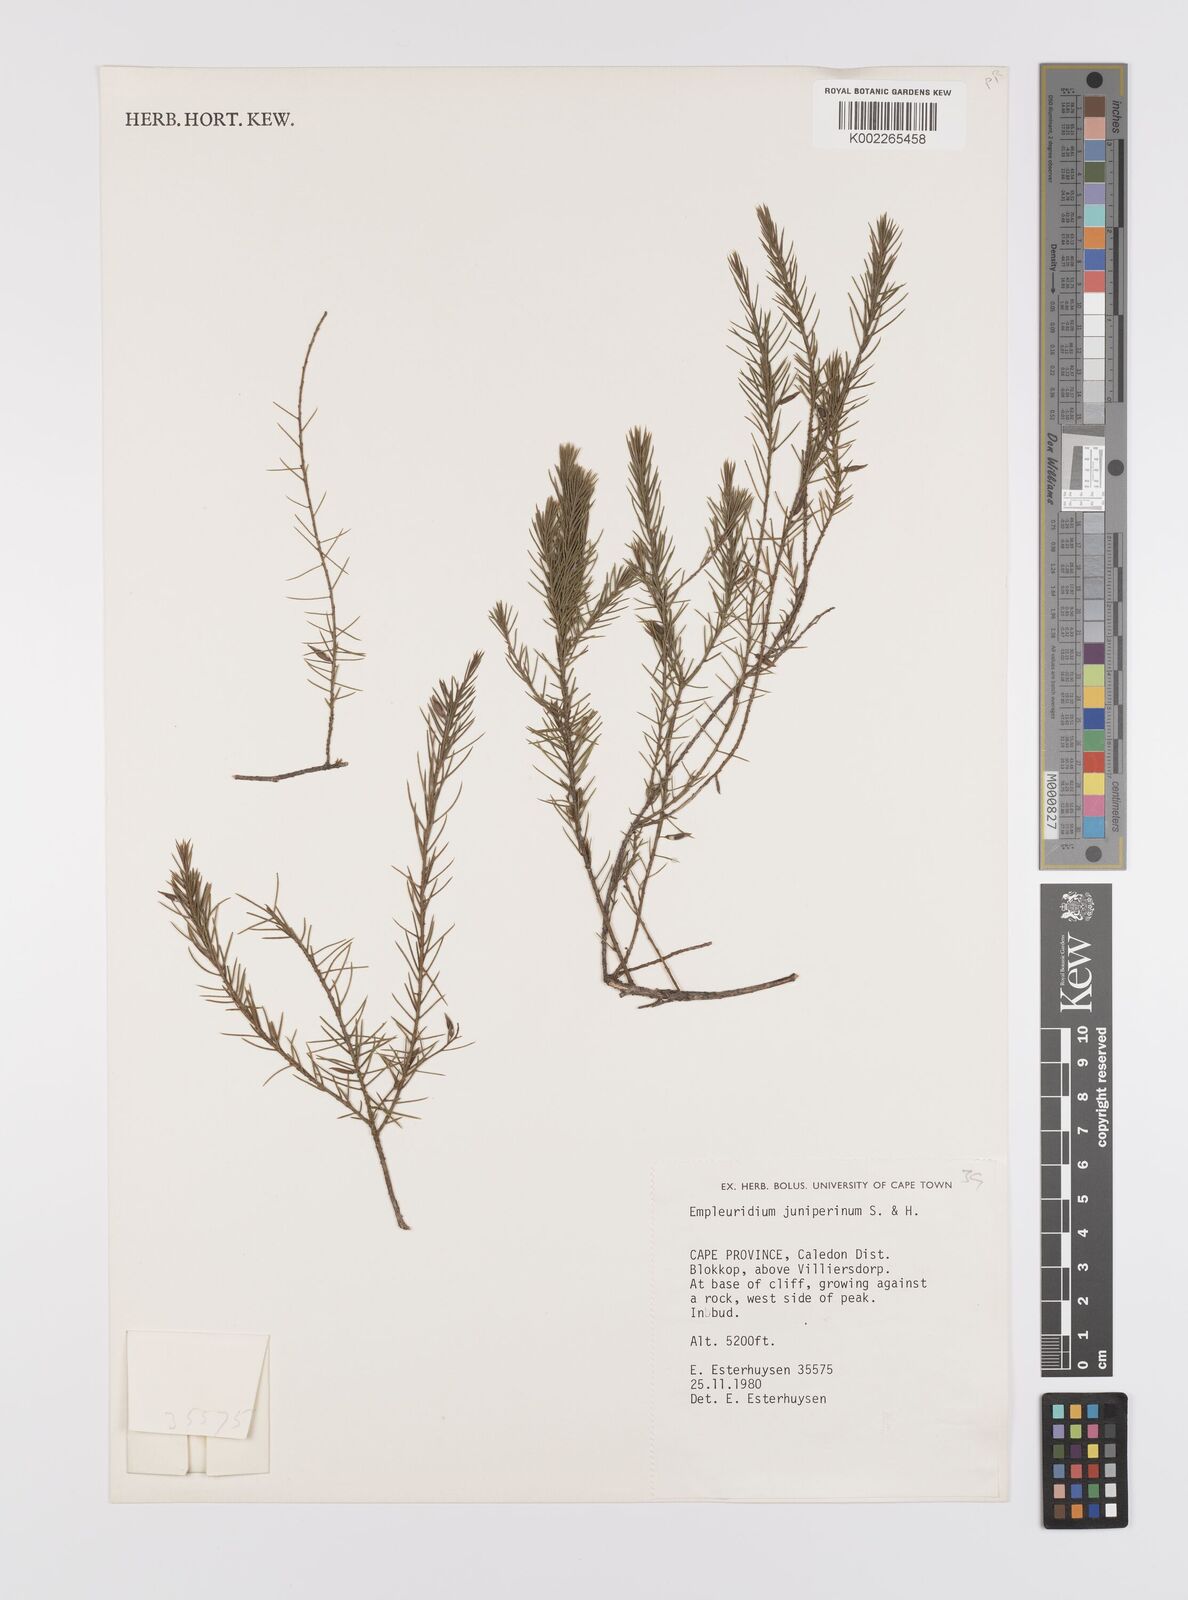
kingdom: Plantae
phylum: Tracheophyta
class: Magnoliopsida
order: Celastrales
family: Celastraceae
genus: Empleuridium
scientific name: Empleuridium juniperinum
